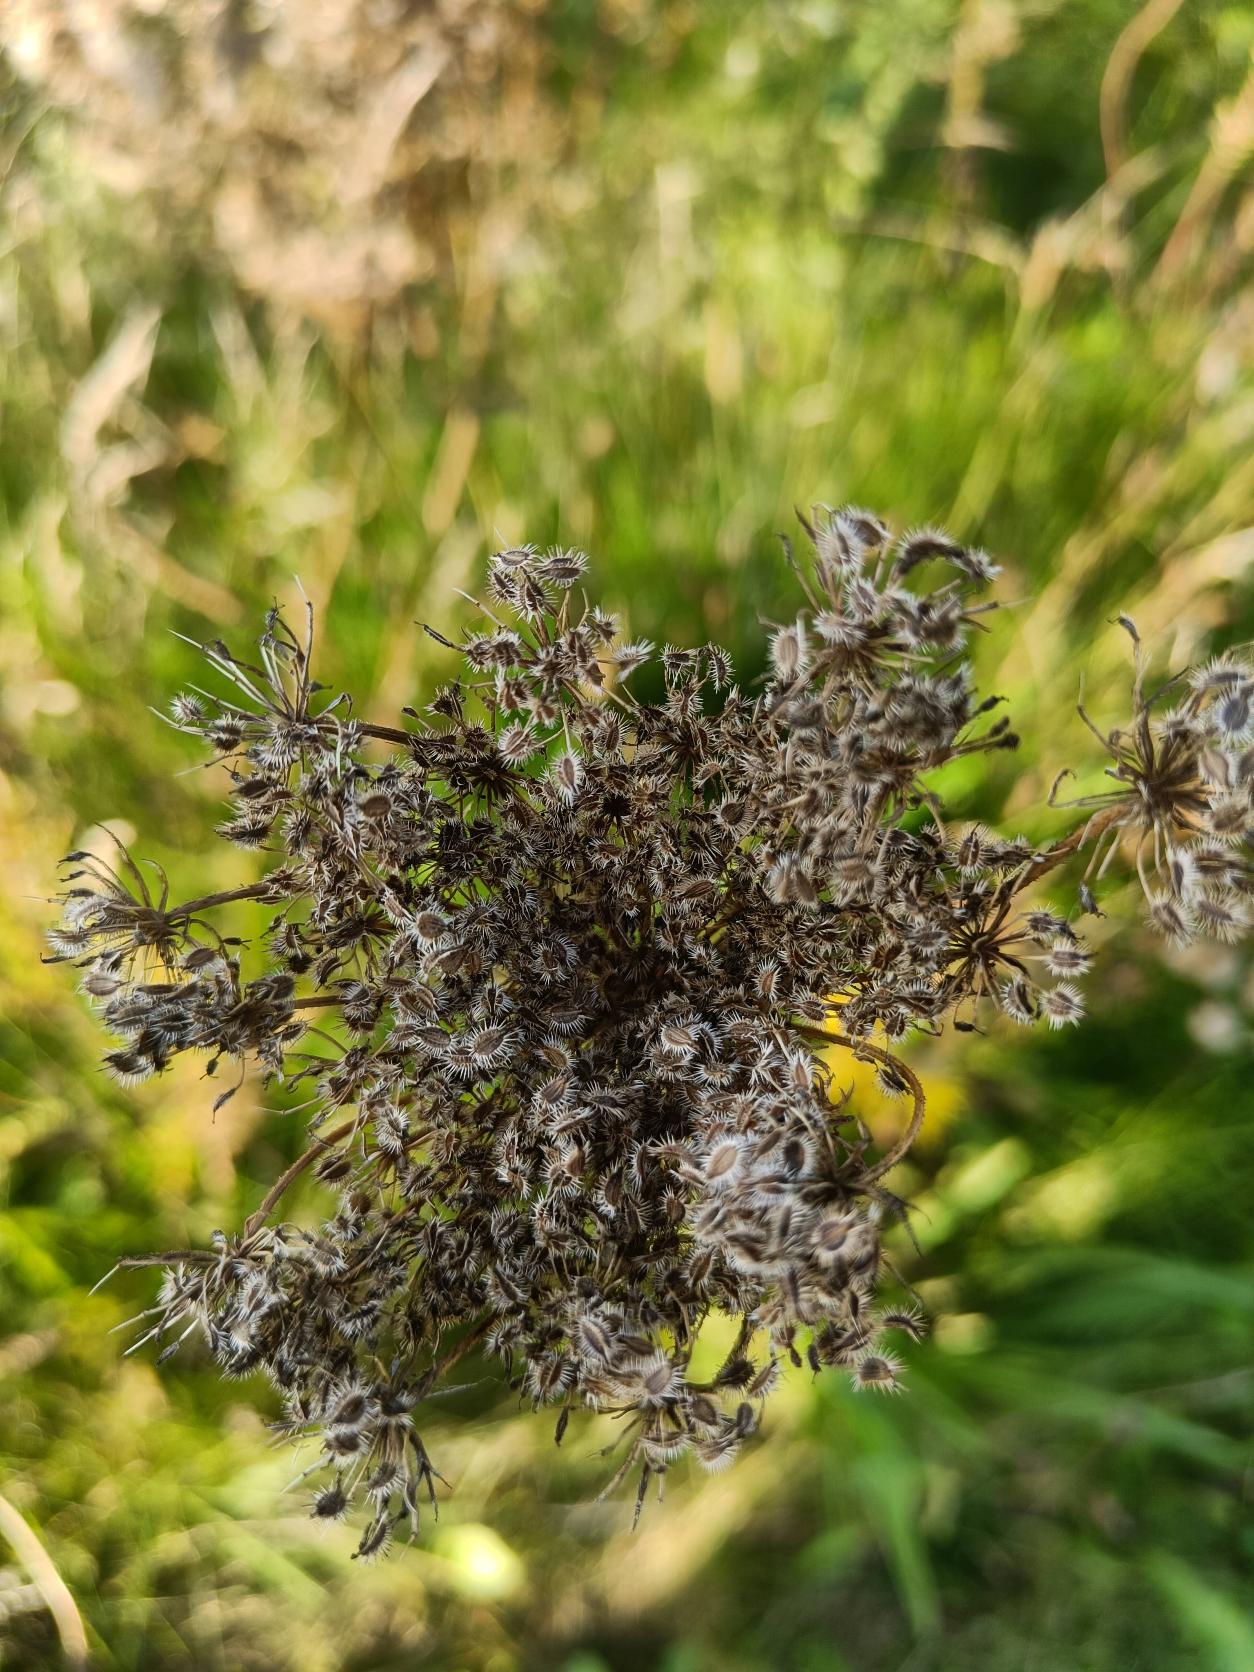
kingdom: Plantae
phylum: Tracheophyta
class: Magnoliopsida
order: Apiales
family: Apiaceae
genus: Daucus
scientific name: Daucus carota
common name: Gulerod
